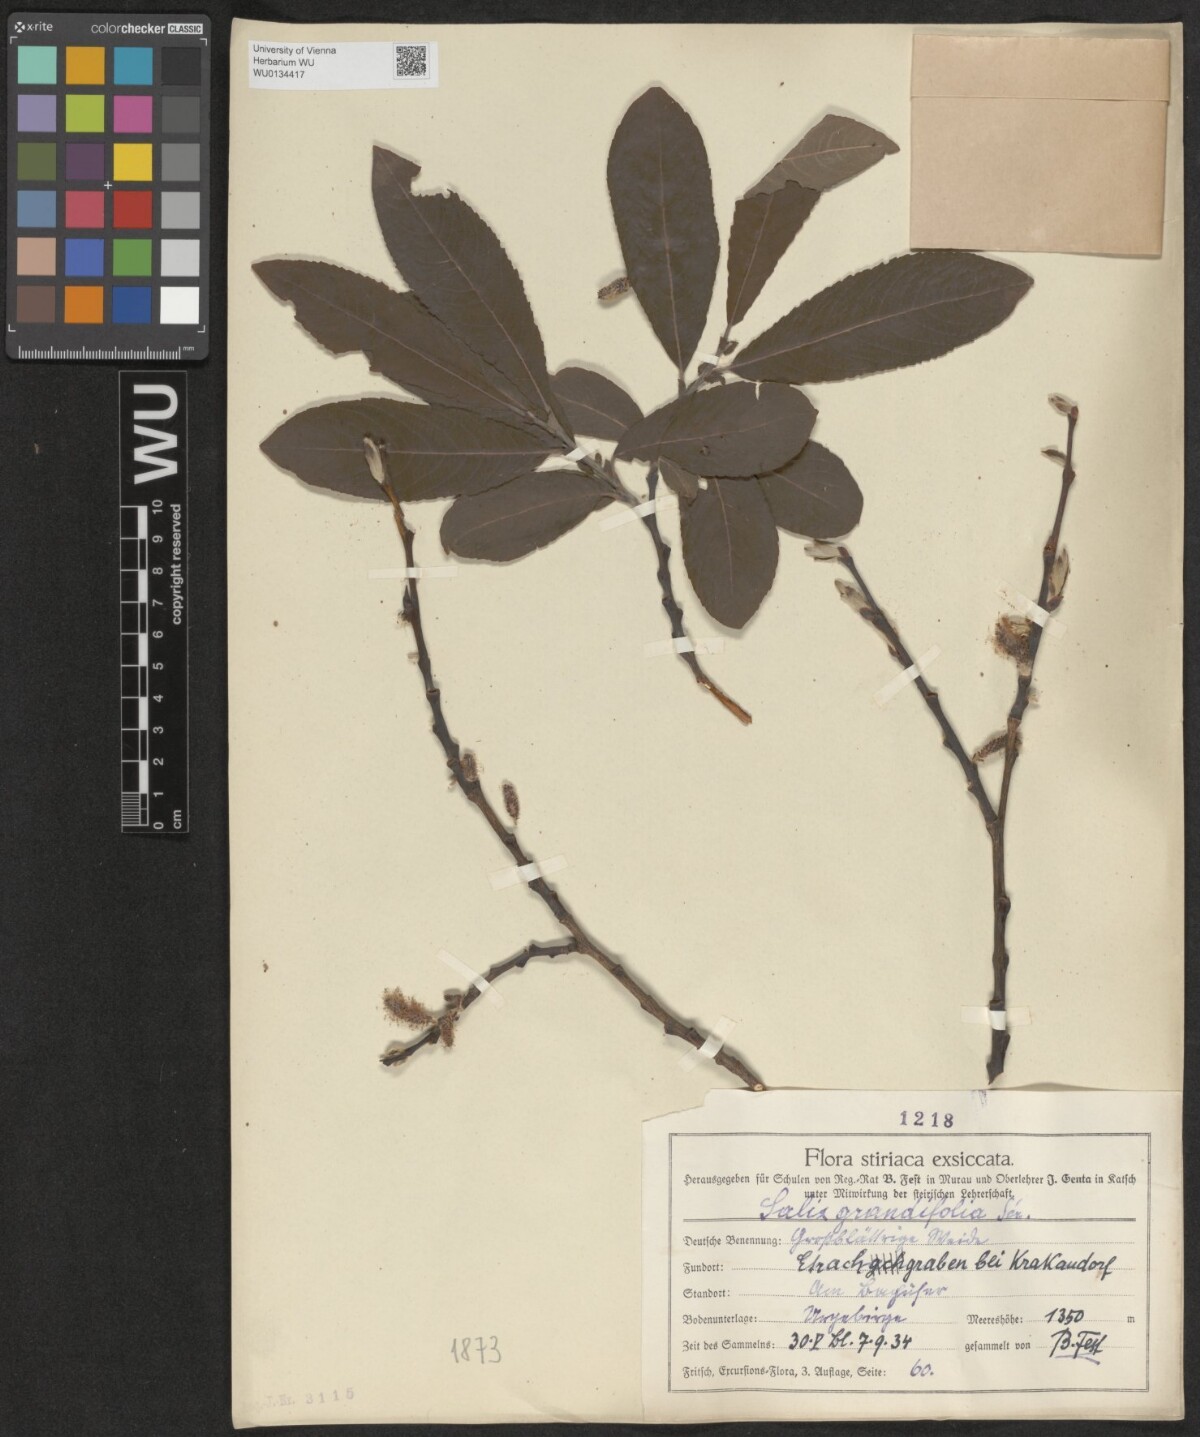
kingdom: Plantae
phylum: Tracheophyta
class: Magnoliopsida
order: Malpighiales
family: Salicaceae
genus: Salix
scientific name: Salix appendiculata
